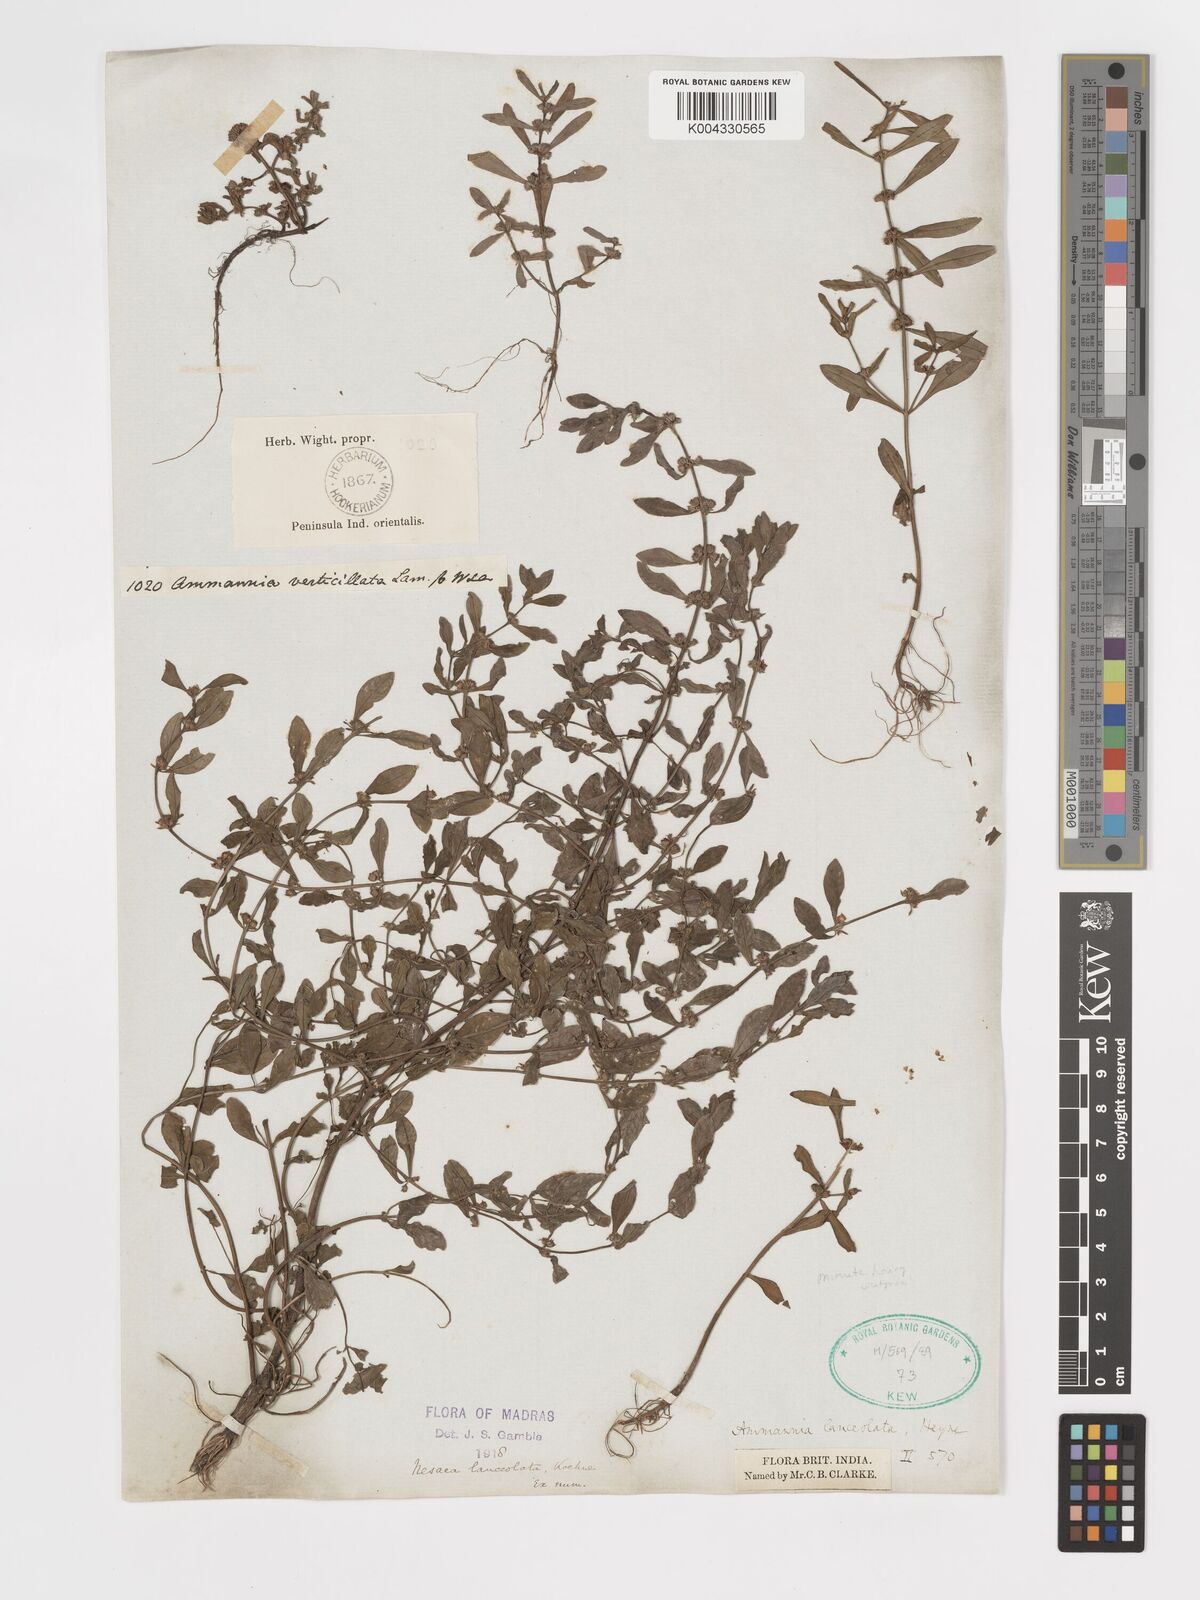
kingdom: Plantae
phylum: Tracheophyta
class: Magnoliopsida
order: Myrtales
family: Lythraceae
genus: Ammannia
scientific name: Ammannia prostrata
